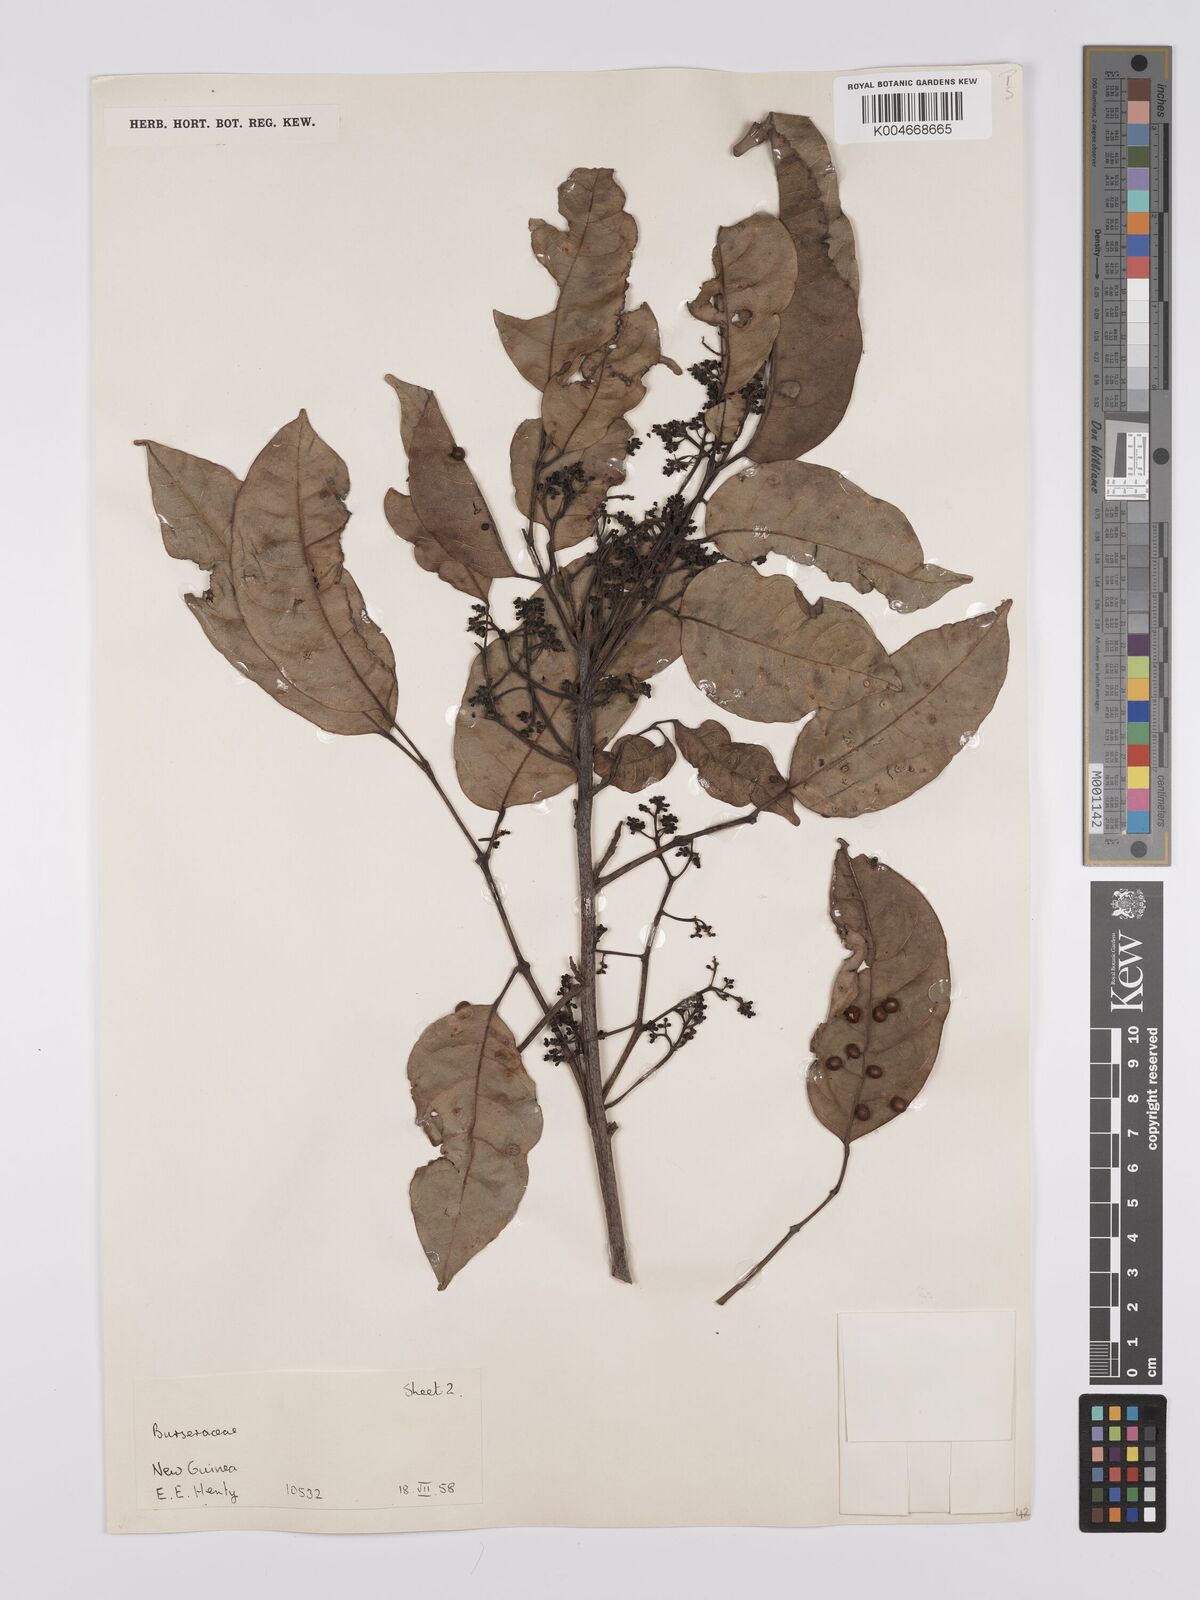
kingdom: Plantae
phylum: Tracheophyta
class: Magnoliopsida
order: Sapindales
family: Burseraceae
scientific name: Burseraceae
